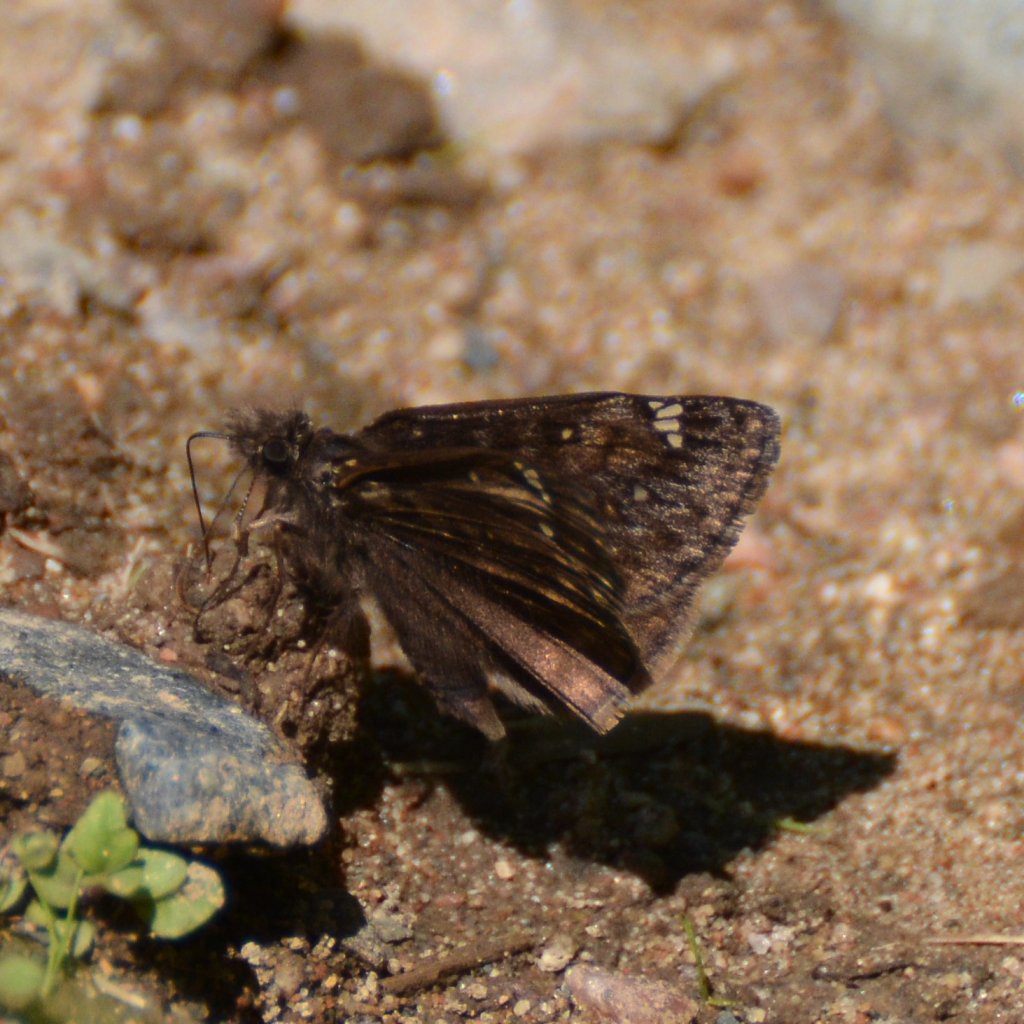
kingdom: Animalia
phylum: Arthropoda
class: Insecta
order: Lepidoptera
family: Hesperiidae
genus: Gesta
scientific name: Gesta
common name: Juvenal's Duskywing
